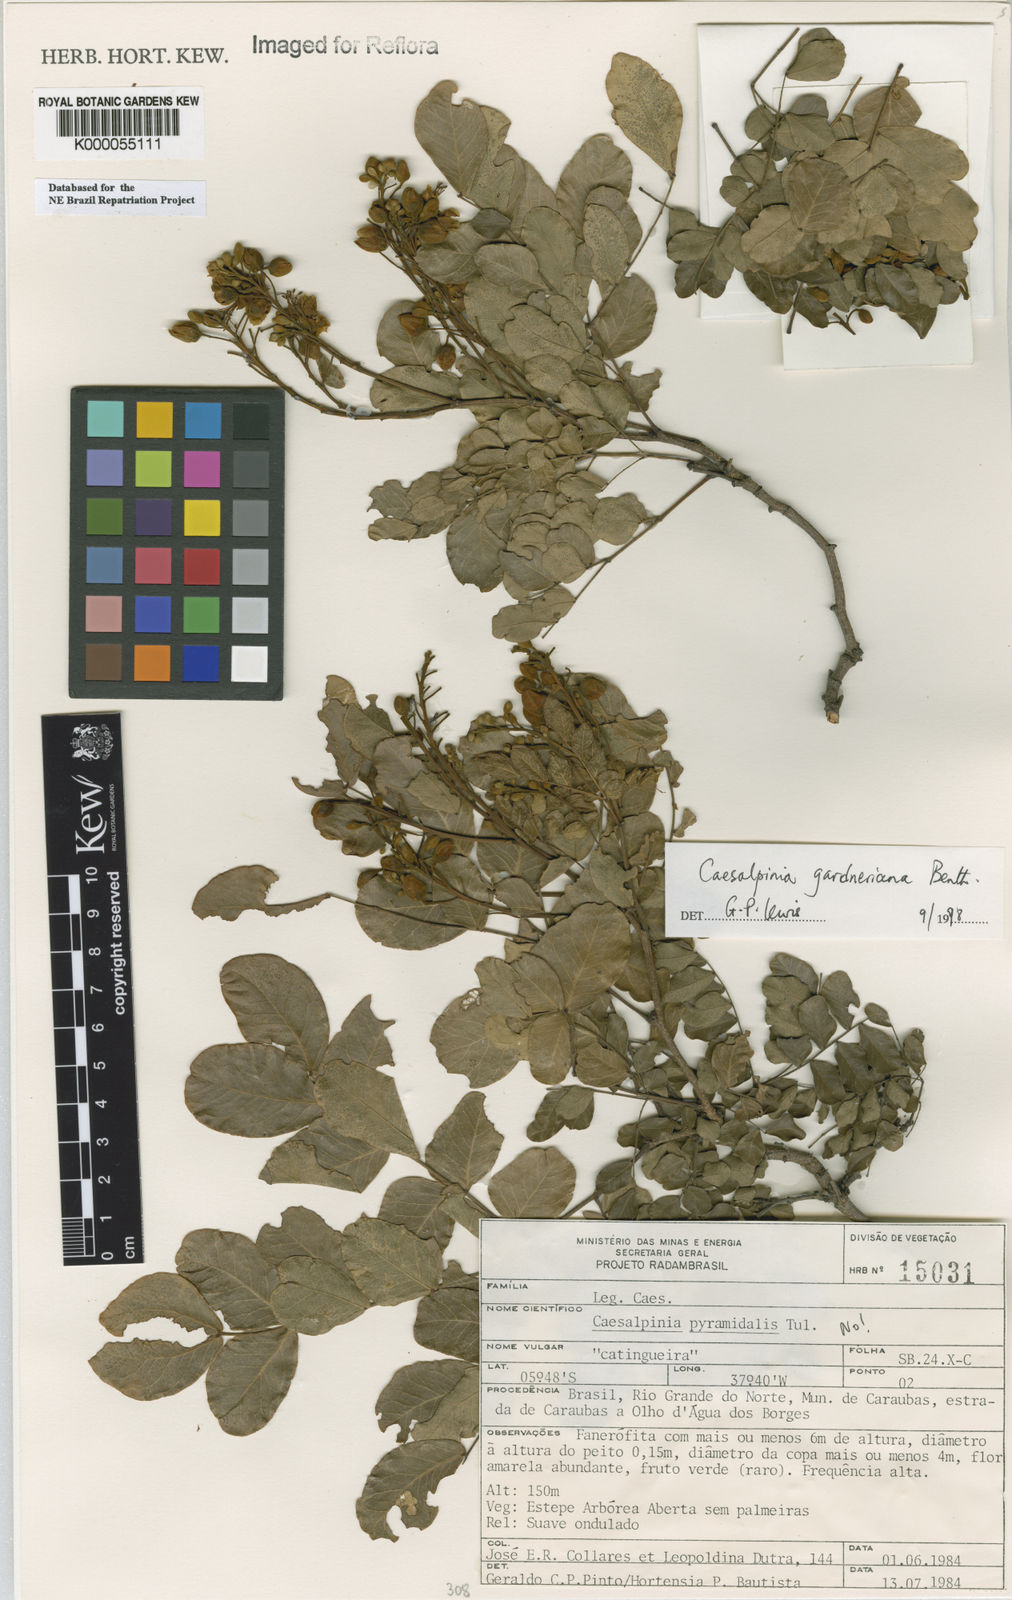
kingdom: Plantae
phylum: Tracheophyta
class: Magnoliopsida
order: Fabales
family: Fabaceae
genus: Cenostigma
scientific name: Cenostigma nordestinum
